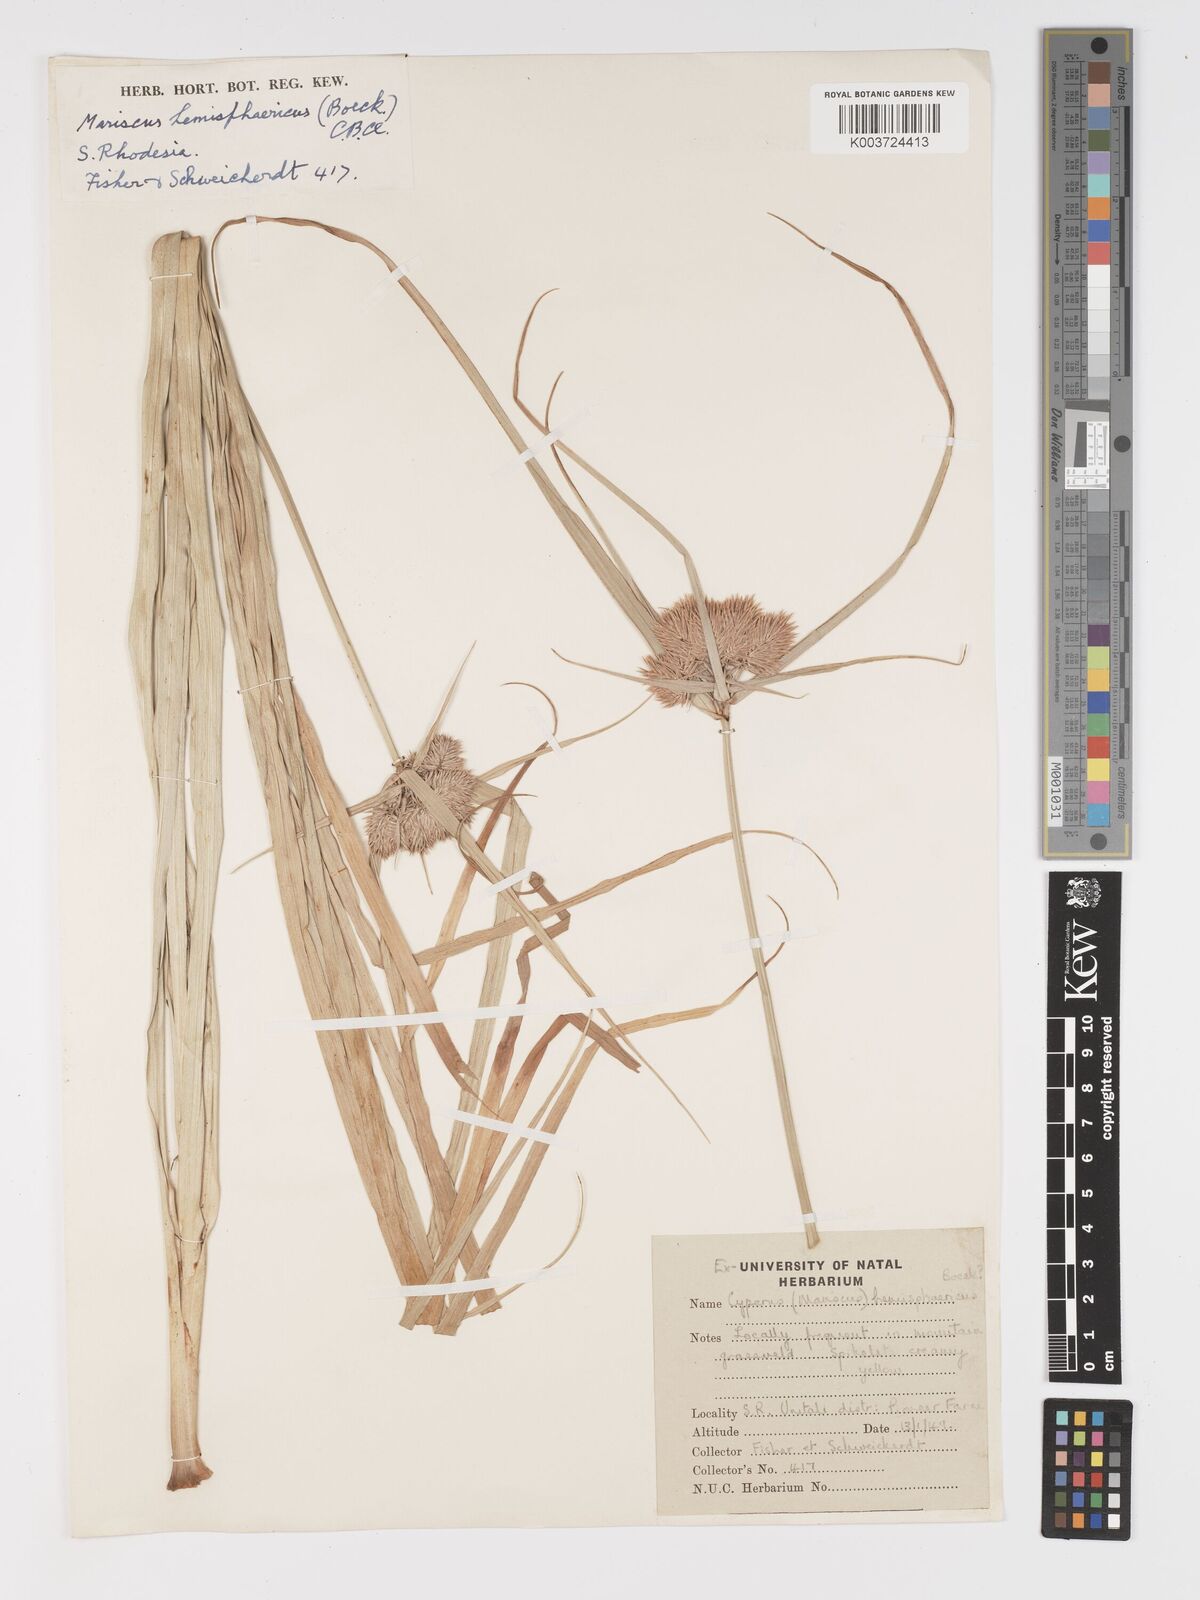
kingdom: Plantae
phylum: Tracheophyta
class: Liliopsida
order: Poales
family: Cyperaceae
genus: Cyperus
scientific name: Cyperus hemisphaericus
